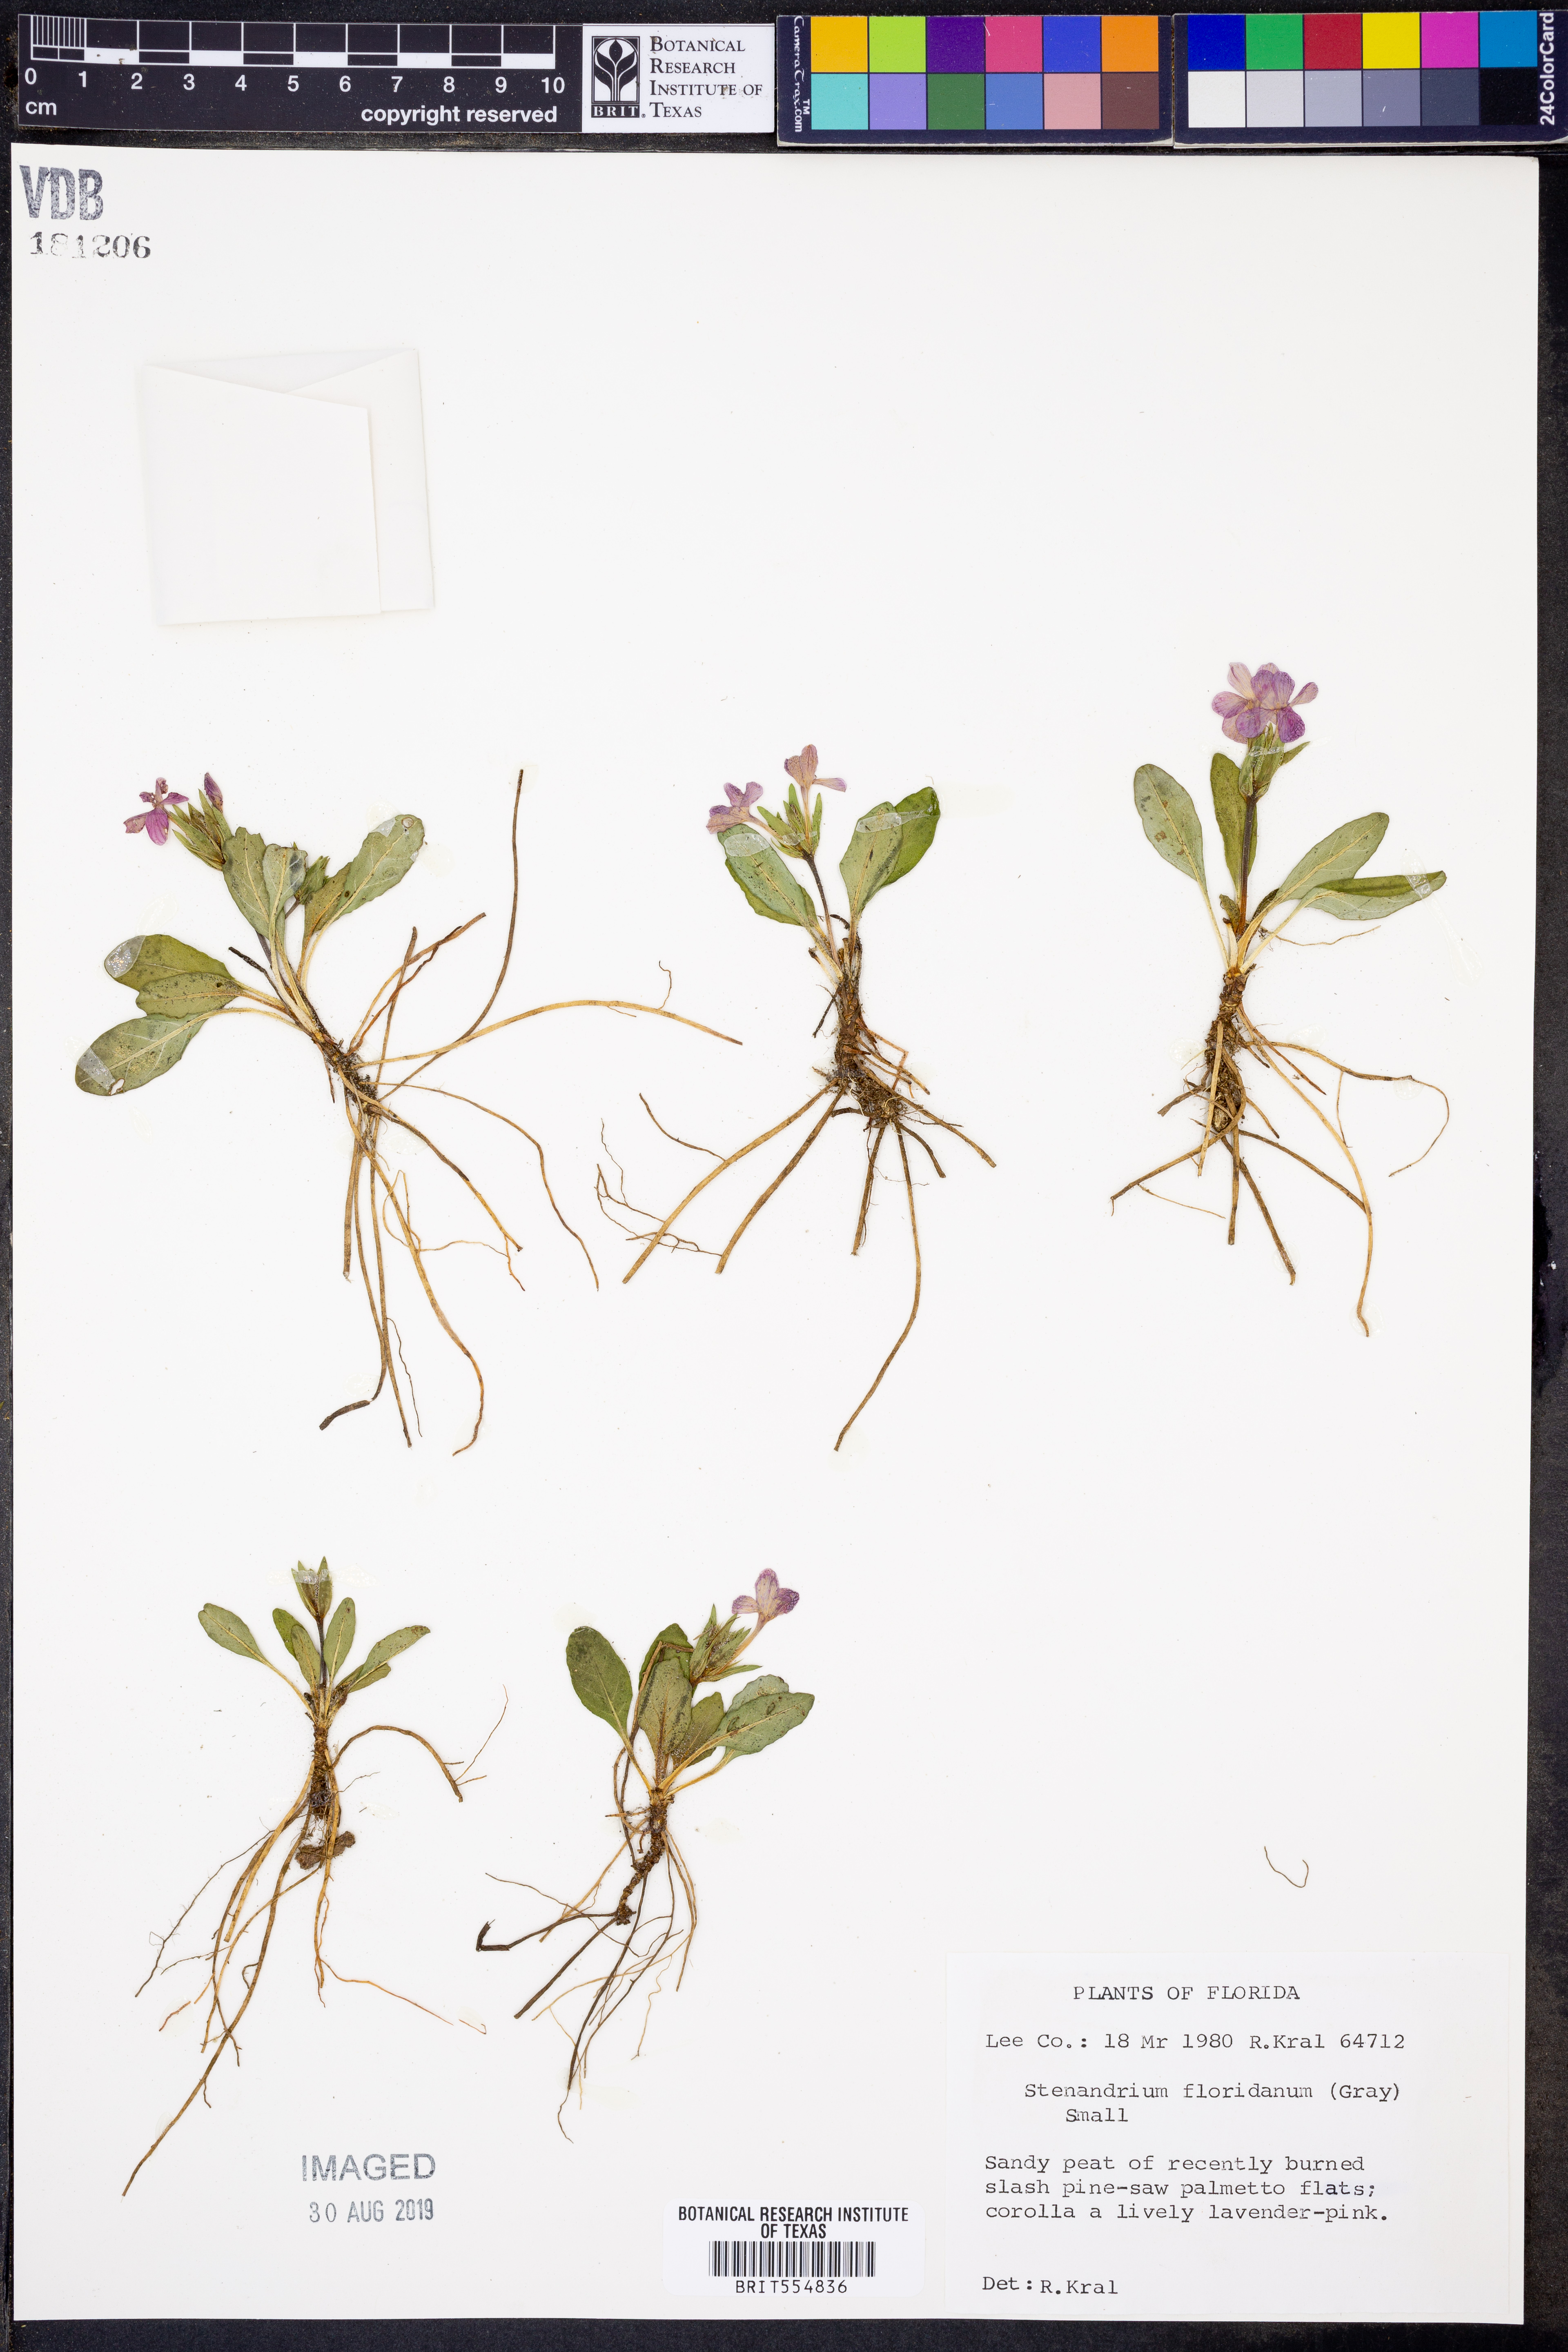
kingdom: Plantae
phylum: Tracheophyta
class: Magnoliopsida
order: Lamiales
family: Acanthaceae
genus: Stenandrium
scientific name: Stenandrium dulce
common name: Pinklet
